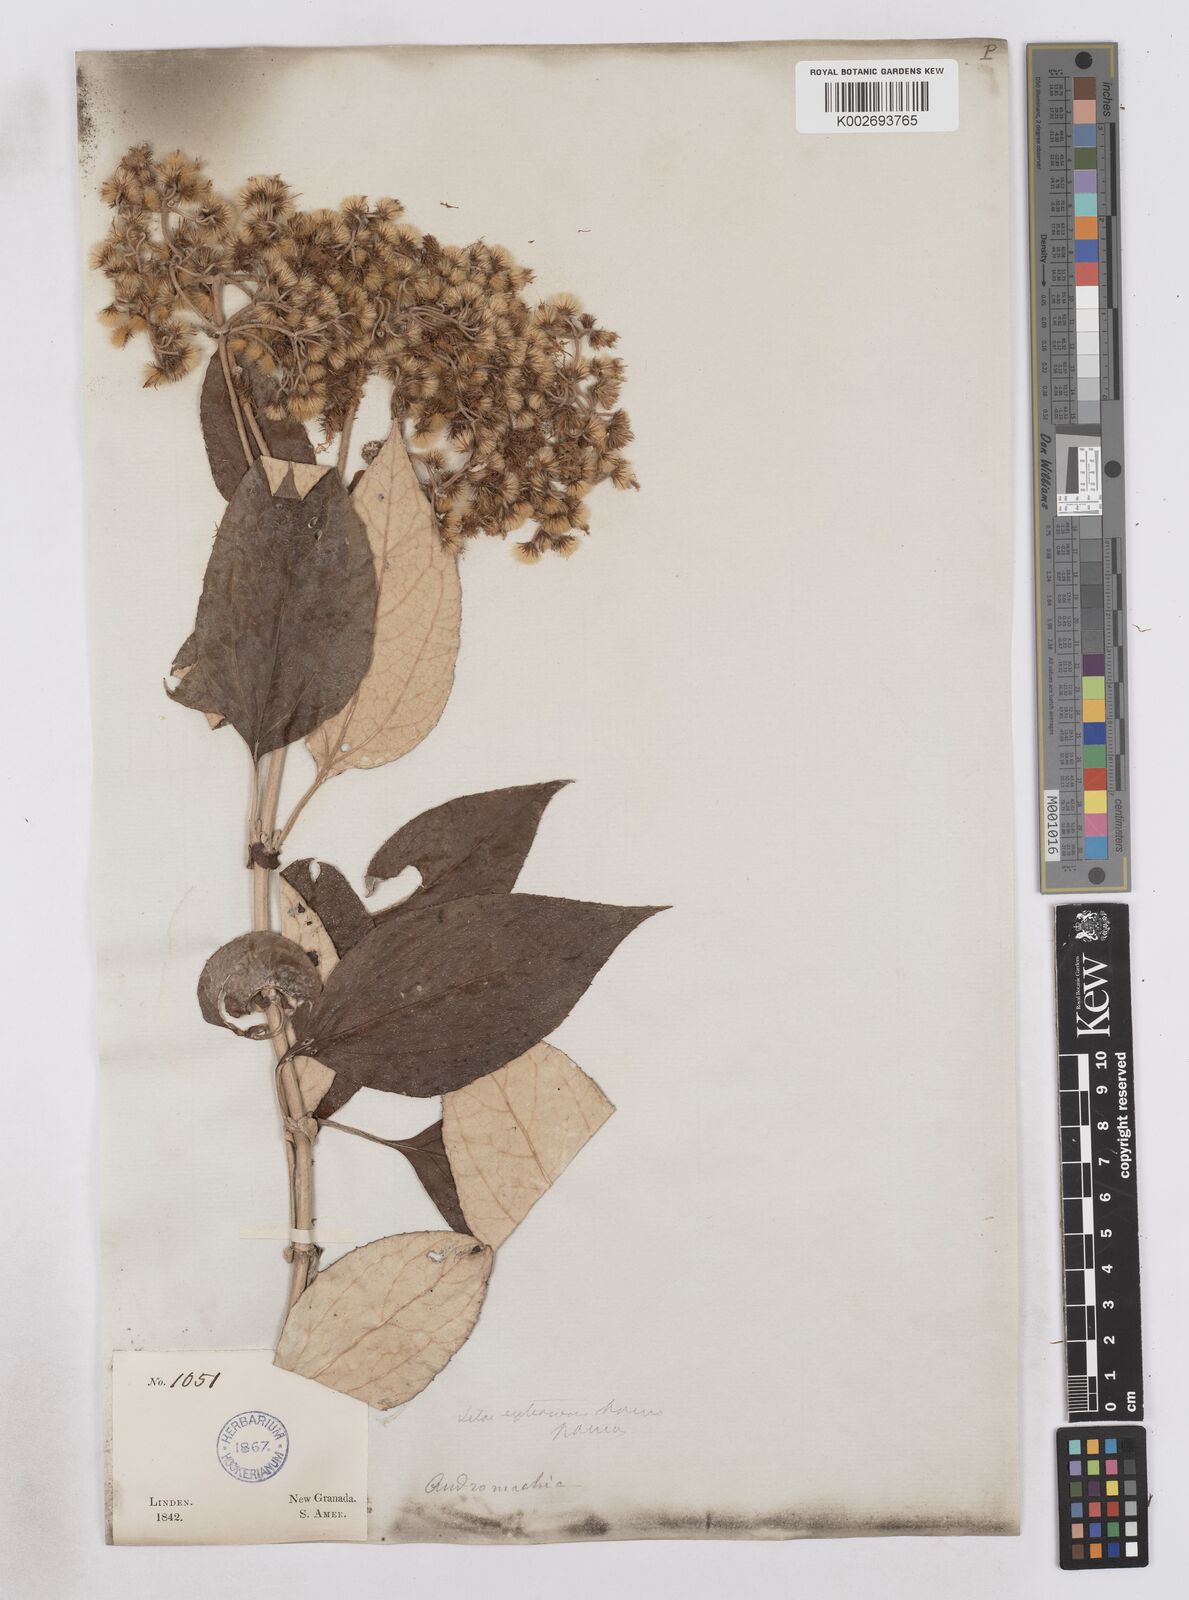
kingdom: Plantae
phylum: Tracheophyta
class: Magnoliopsida
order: Asterales
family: Asteraceae
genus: Platycarphella
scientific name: Platycarphella
